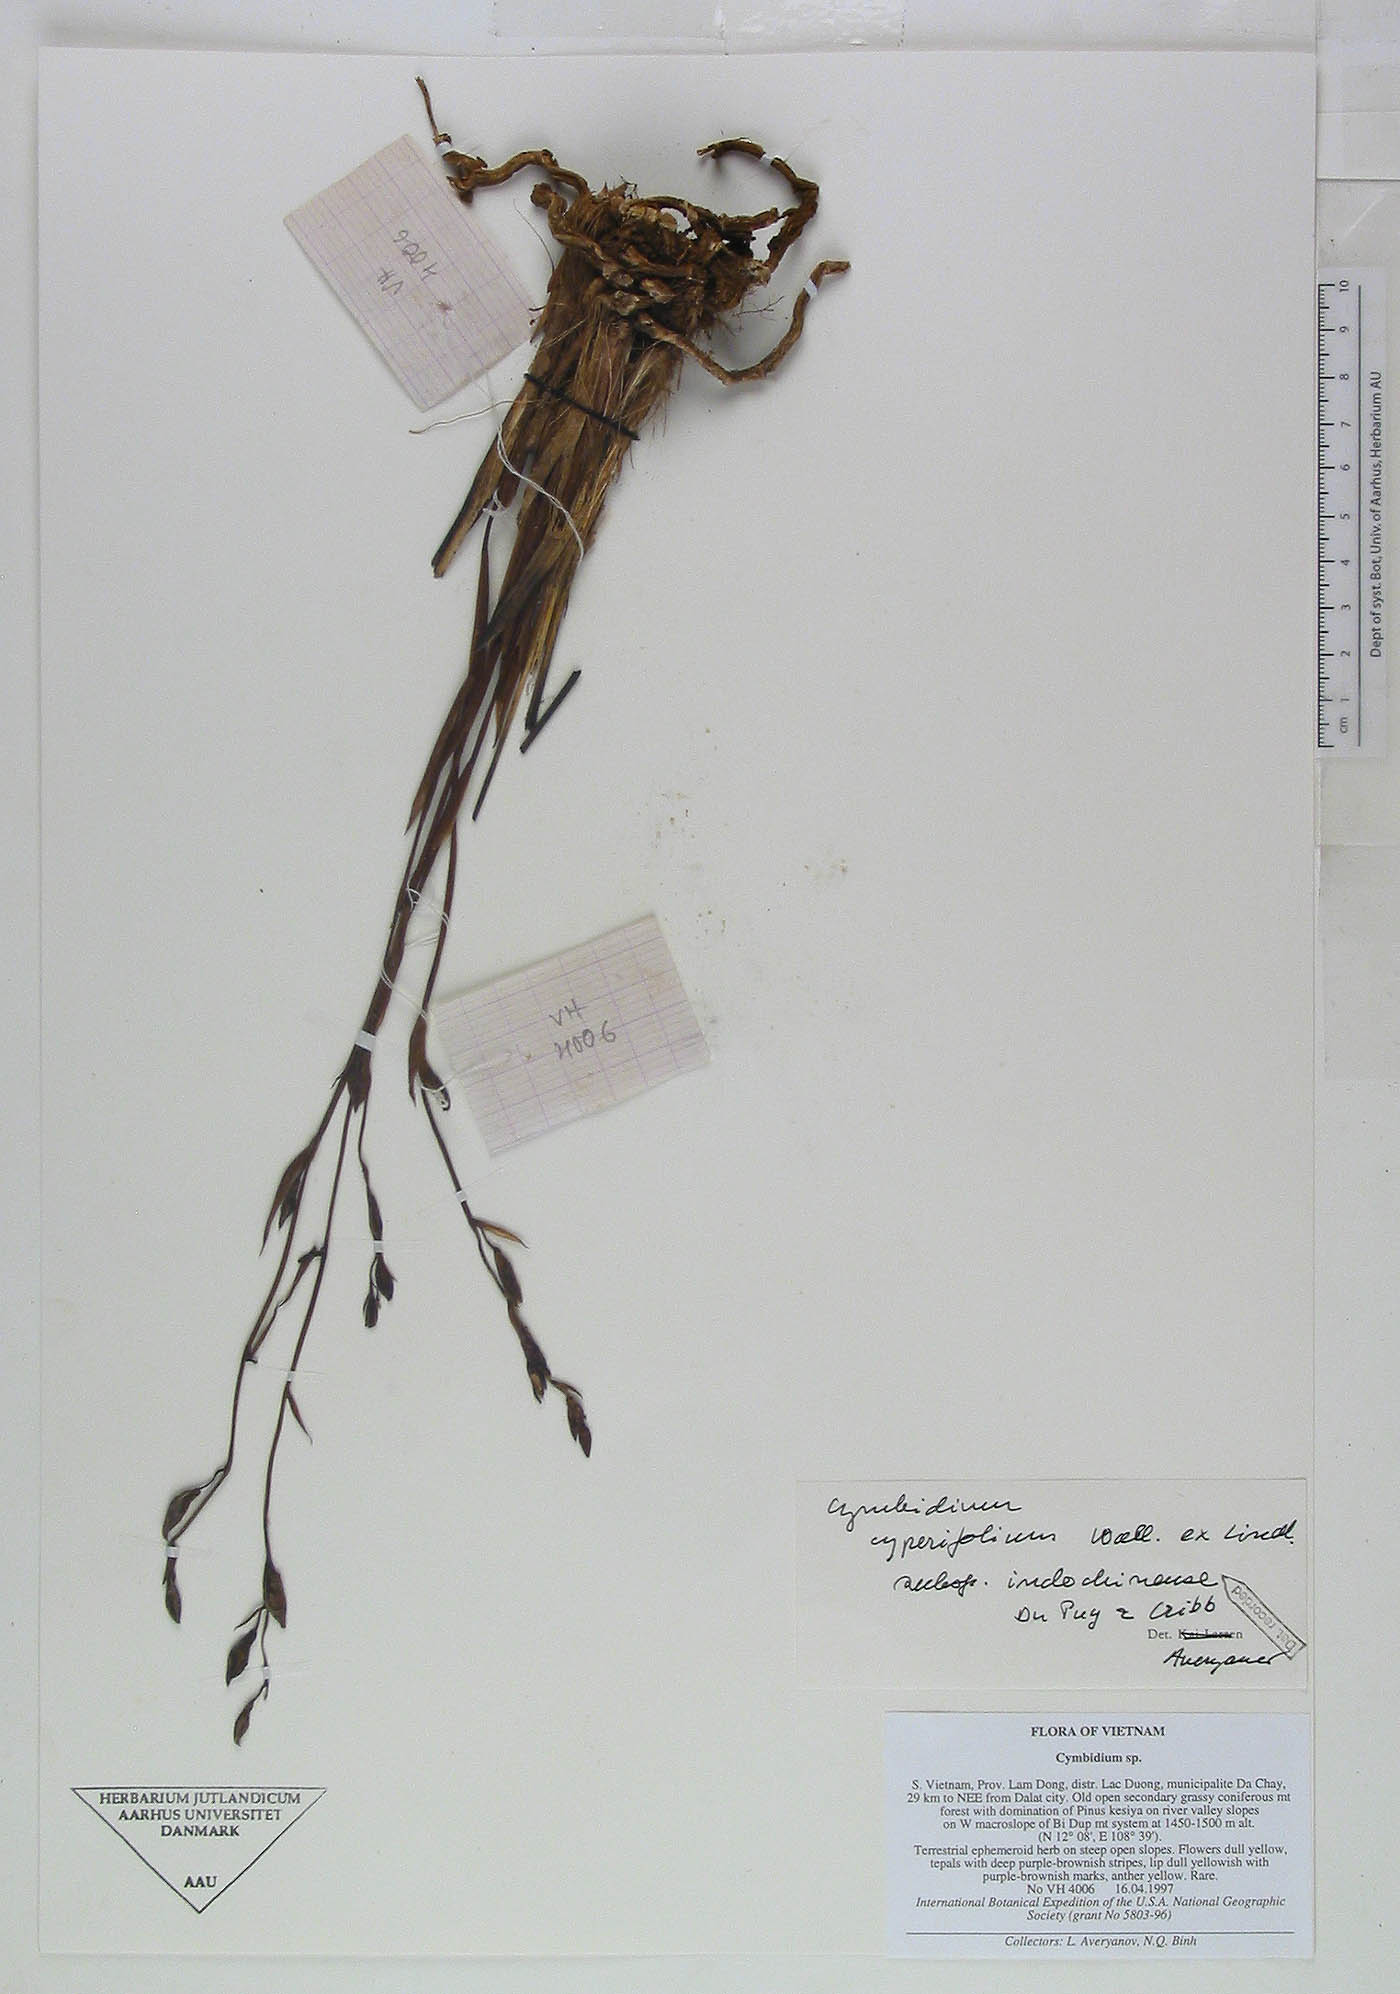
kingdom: Plantae
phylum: Tracheophyta
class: Liliopsida
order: Asparagales
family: Orchidaceae
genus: Cymbidium
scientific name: Cymbidium cyperifolium
